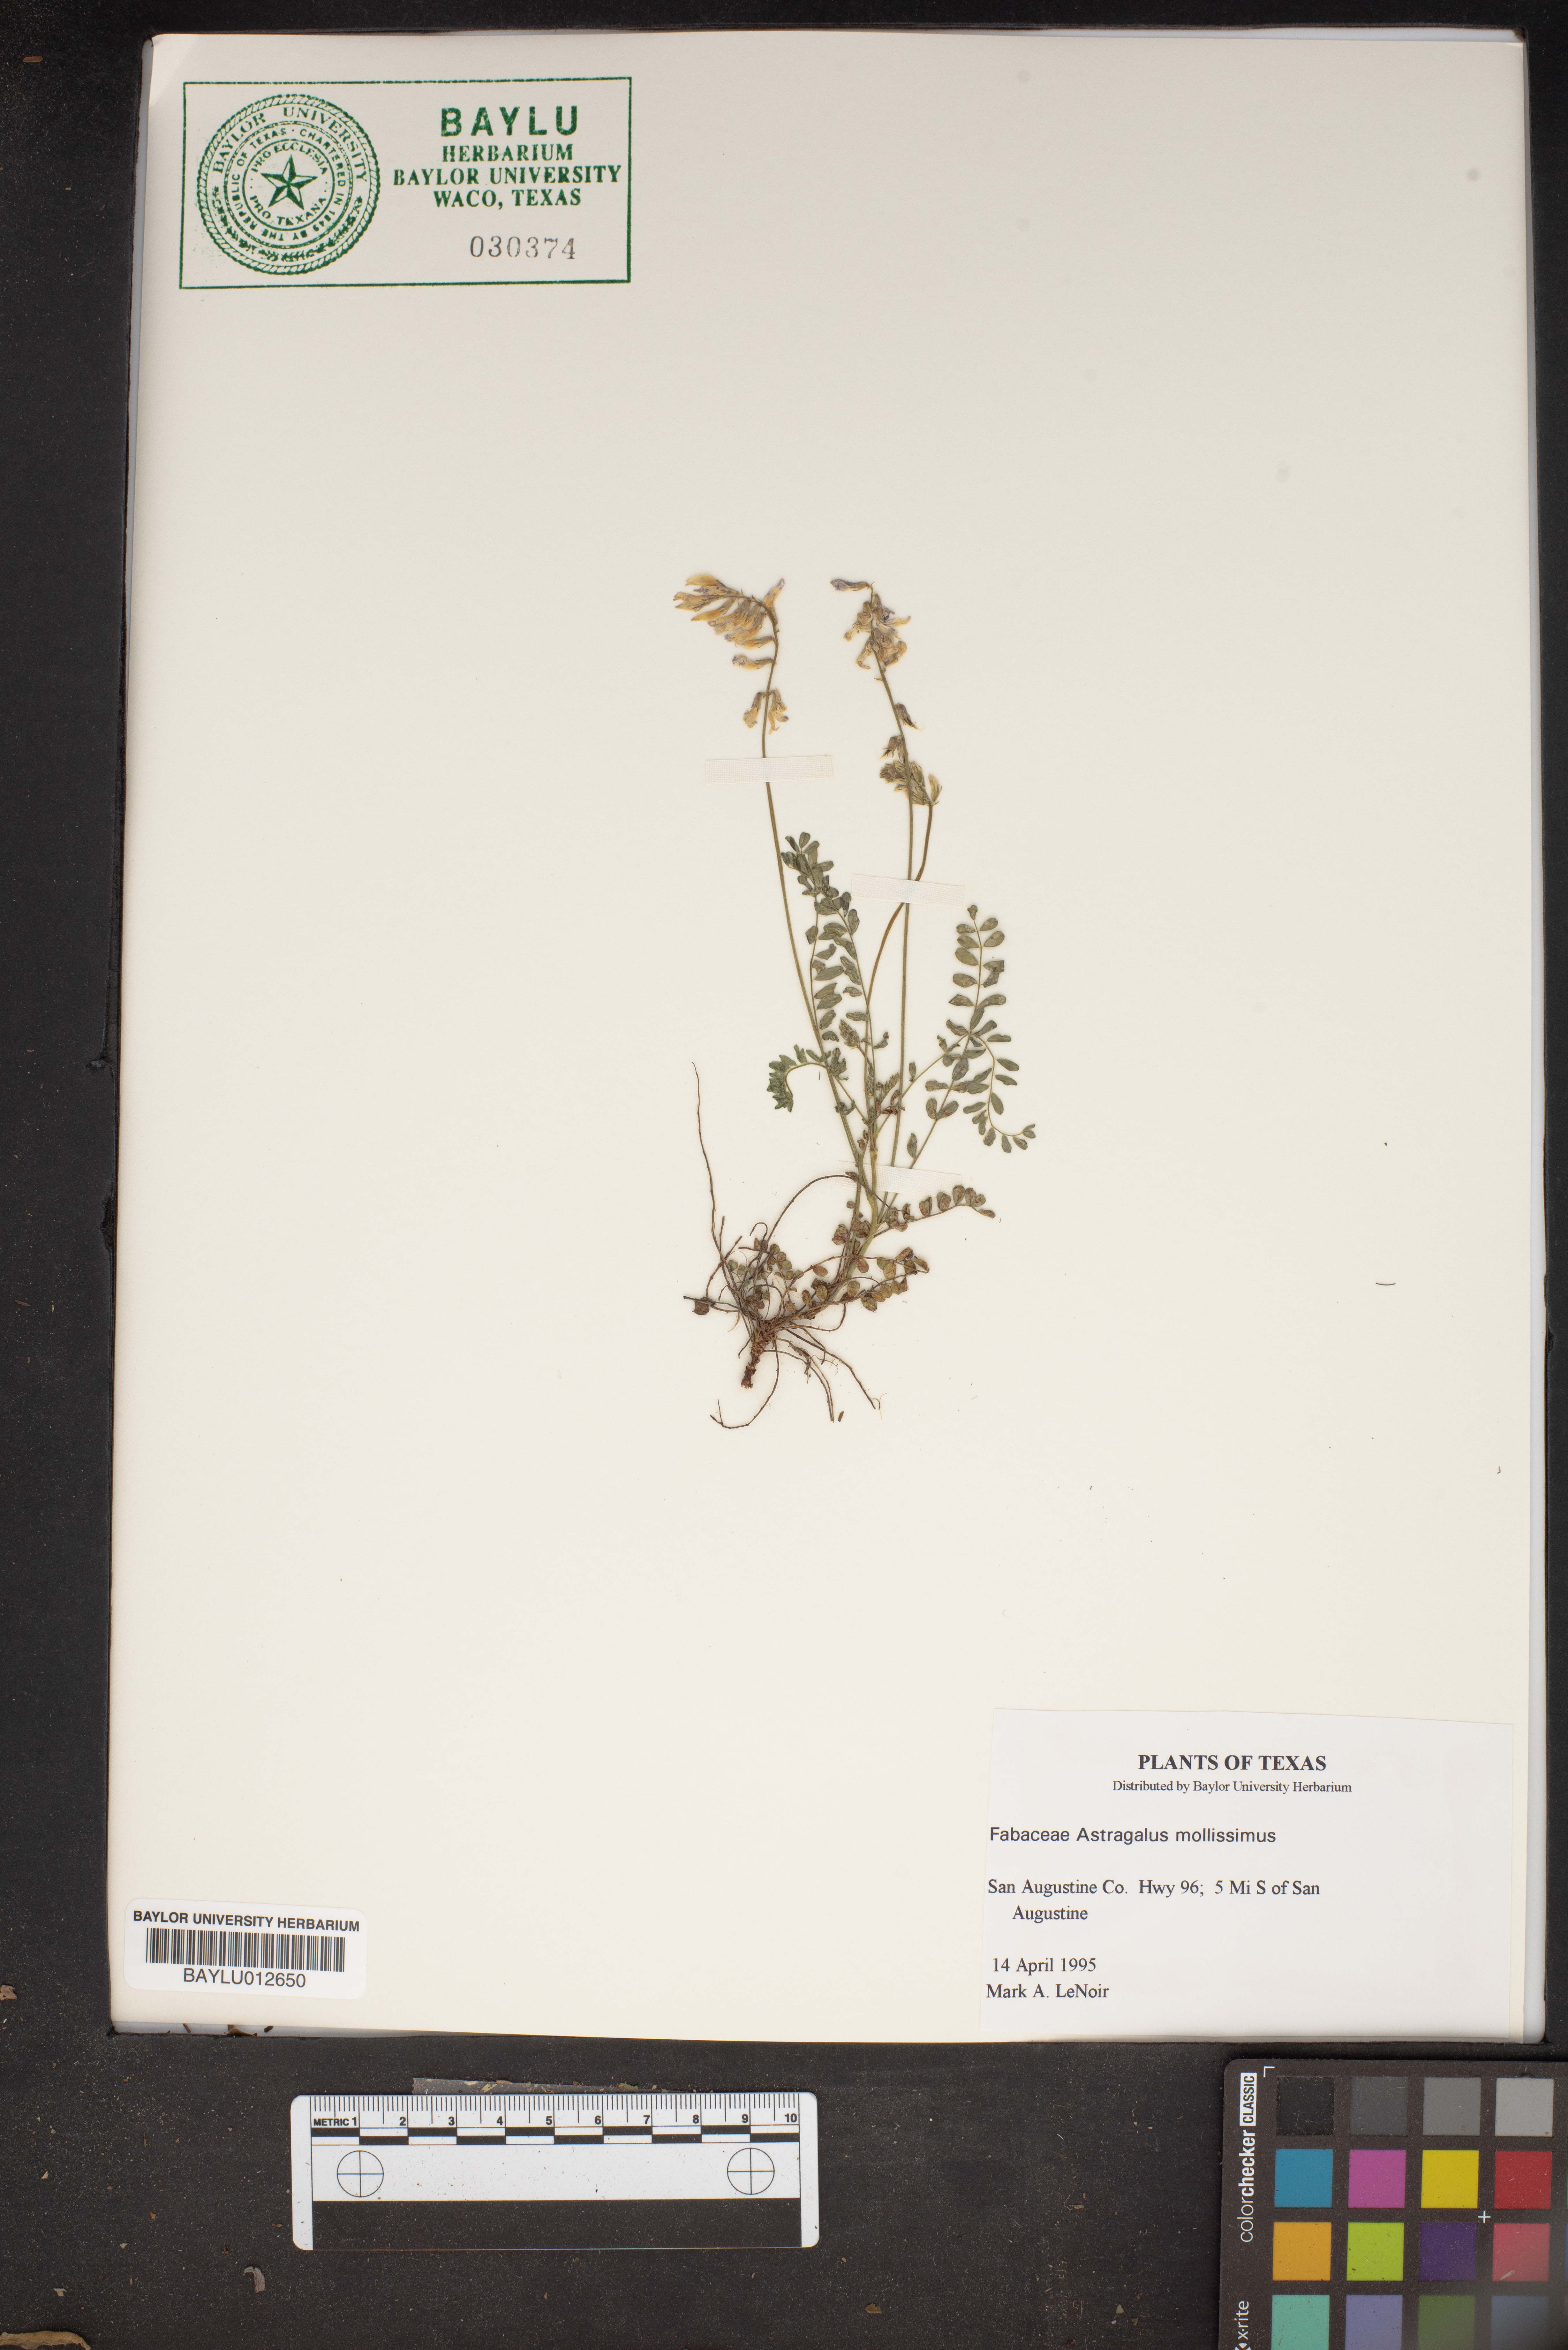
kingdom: Plantae
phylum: Tracheophyta
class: Magnoliopsida
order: Fabales
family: Fabaceae
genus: Astragalus
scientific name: Astragalus mollissimus
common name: Woolly locoweed
